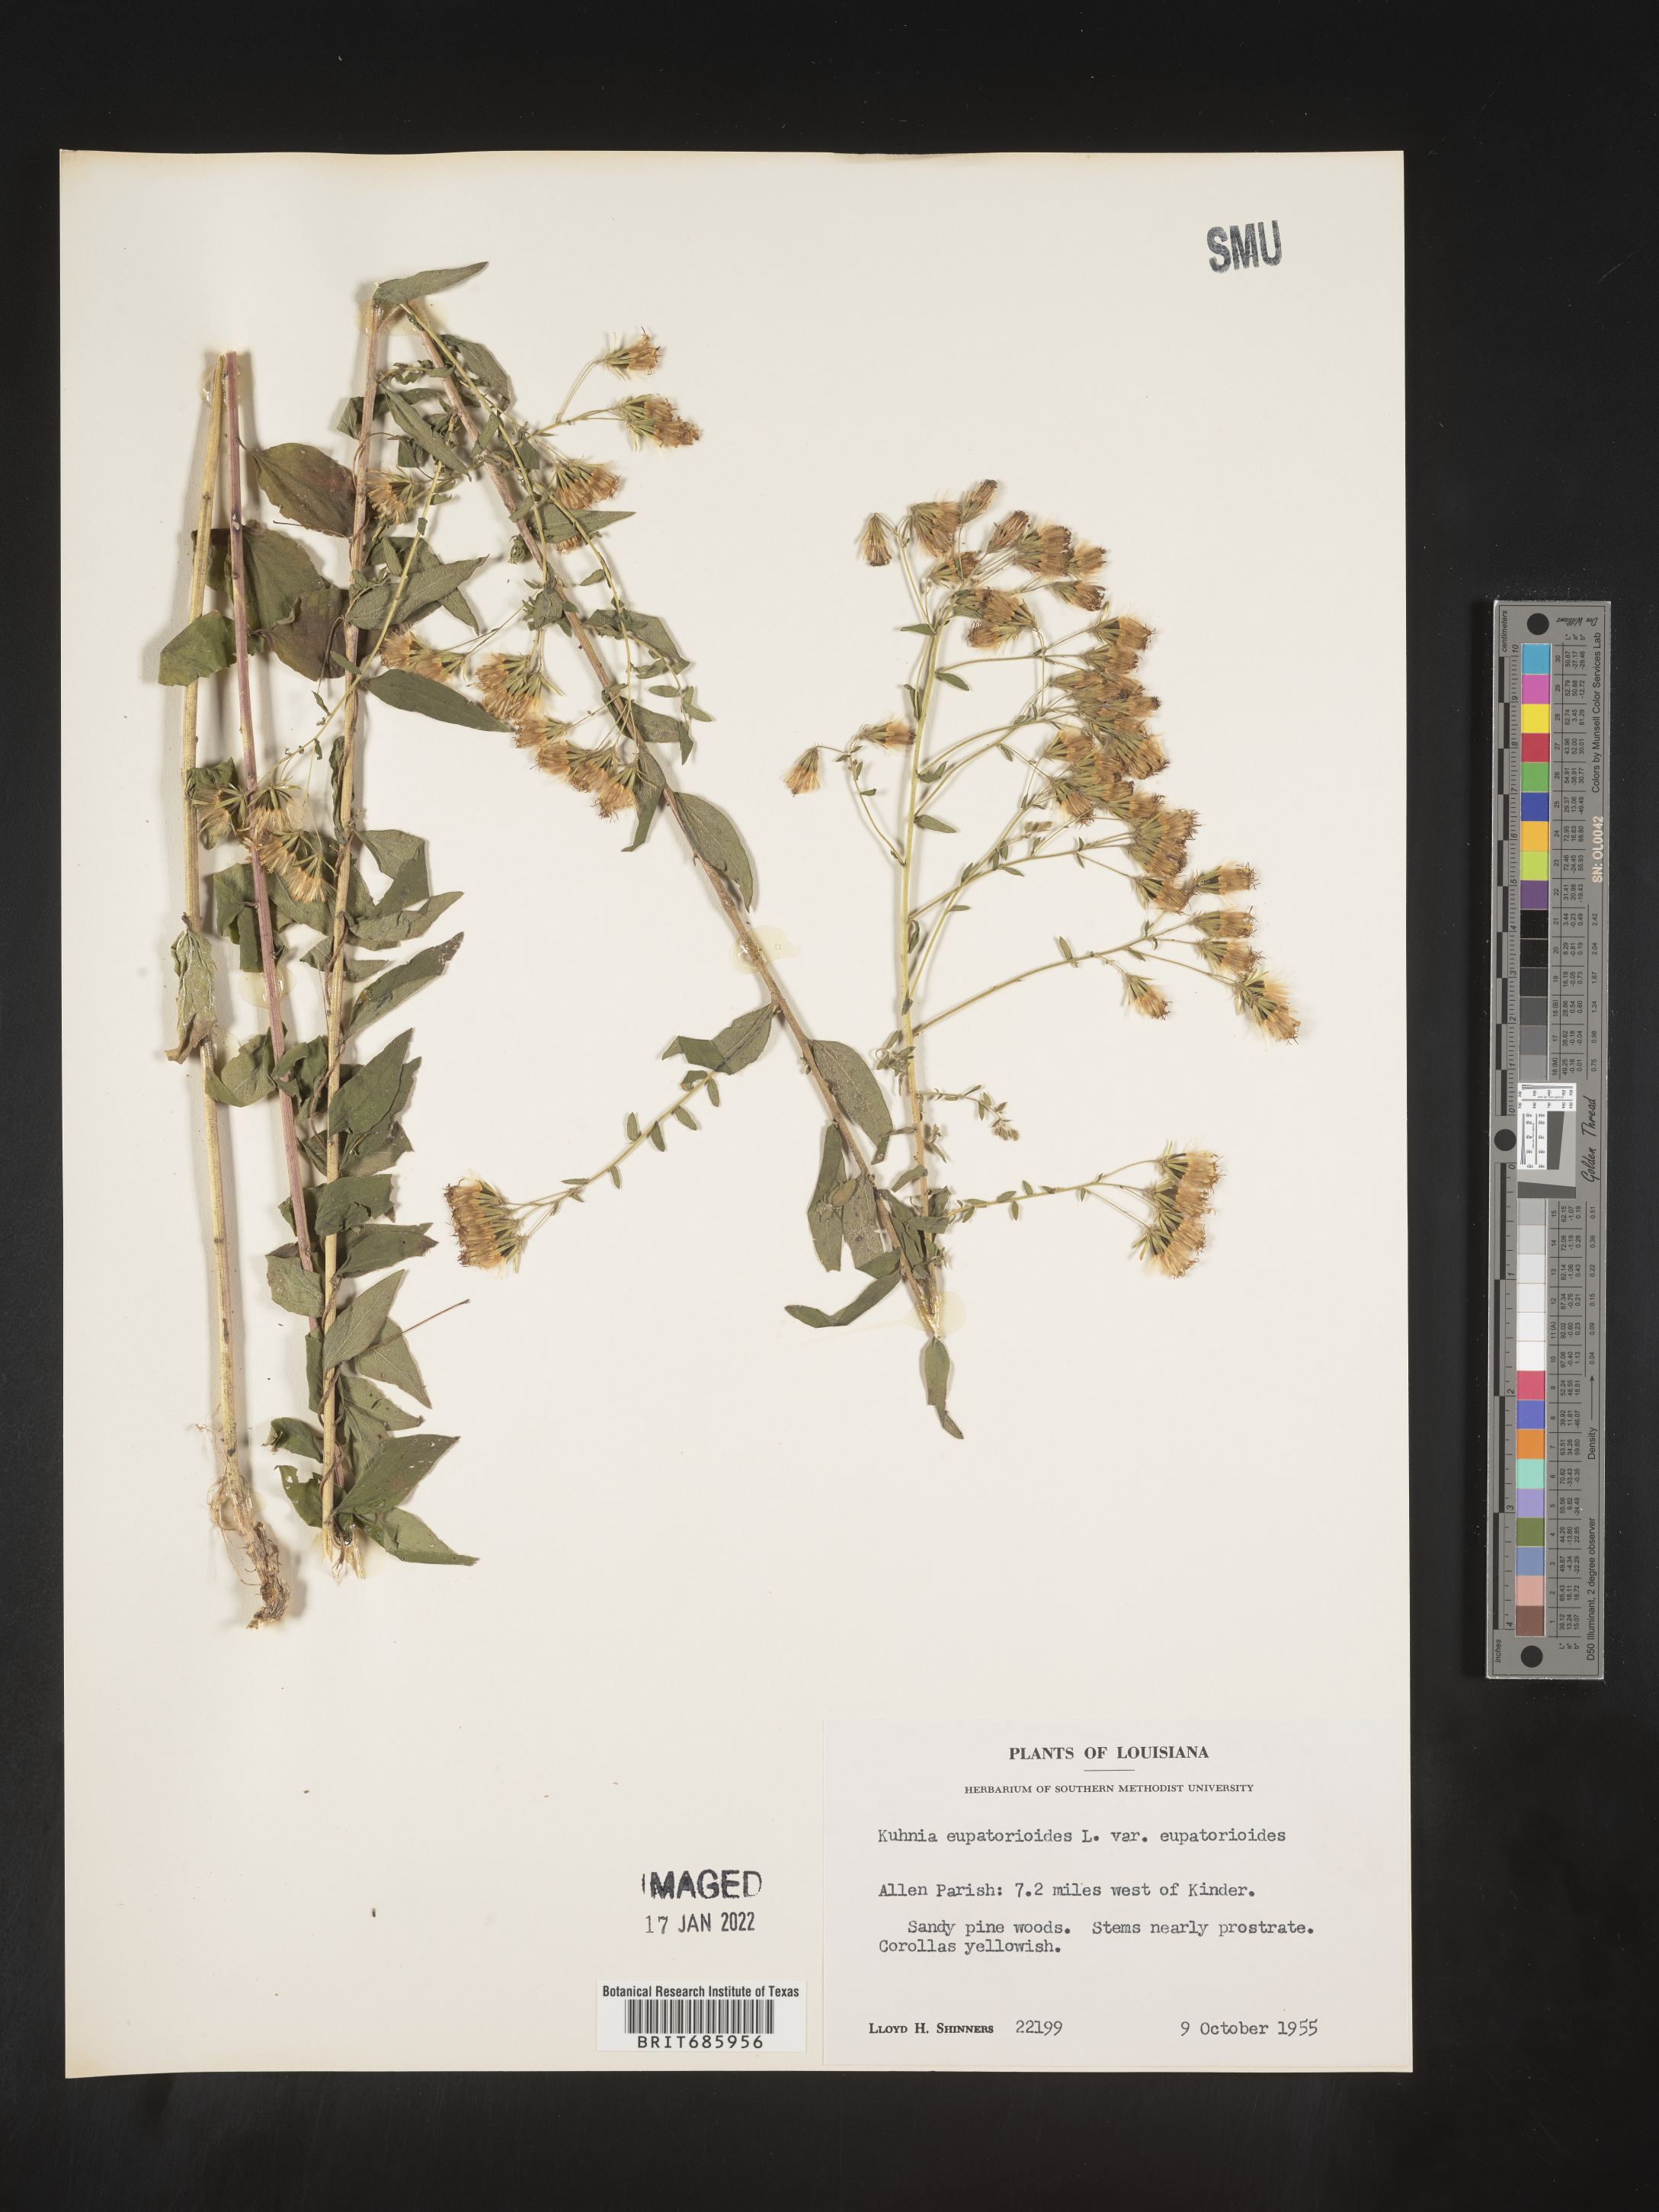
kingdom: Plantae
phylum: Tracheophyta
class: Magnoliopsida
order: Asterales
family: Asteraceae
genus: Brickellia
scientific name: Brickellia eupatorioides
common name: False boneset
